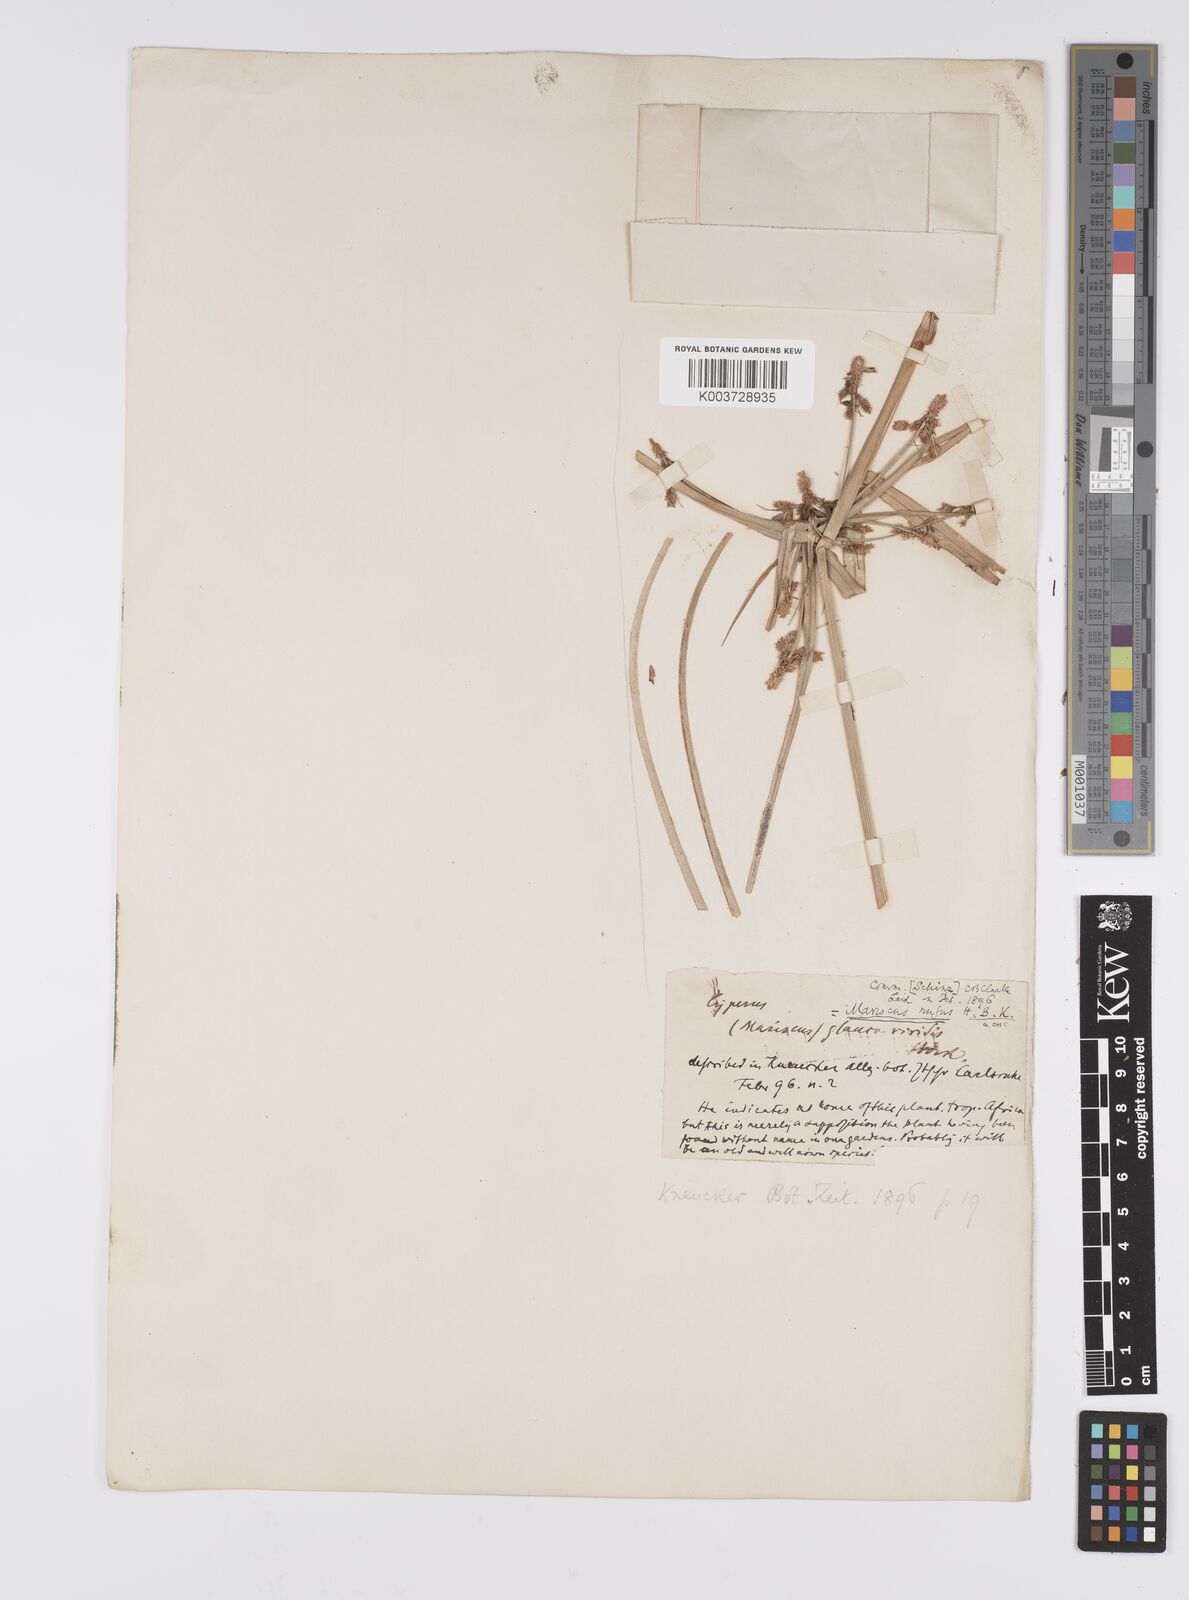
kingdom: Plantae
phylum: Tracheophyta
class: Liliopsida
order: Poales
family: Cyperaceae
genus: Cyperus
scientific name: Cyperus owanii
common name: Owan's flatsedge
